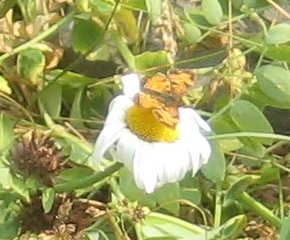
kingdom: Animalia
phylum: Arthropoda
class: Insecta
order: Lepidoptera
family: Nymphalidae
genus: Phyciodes
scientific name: Phyciodes tharos
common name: Northern Crescent
